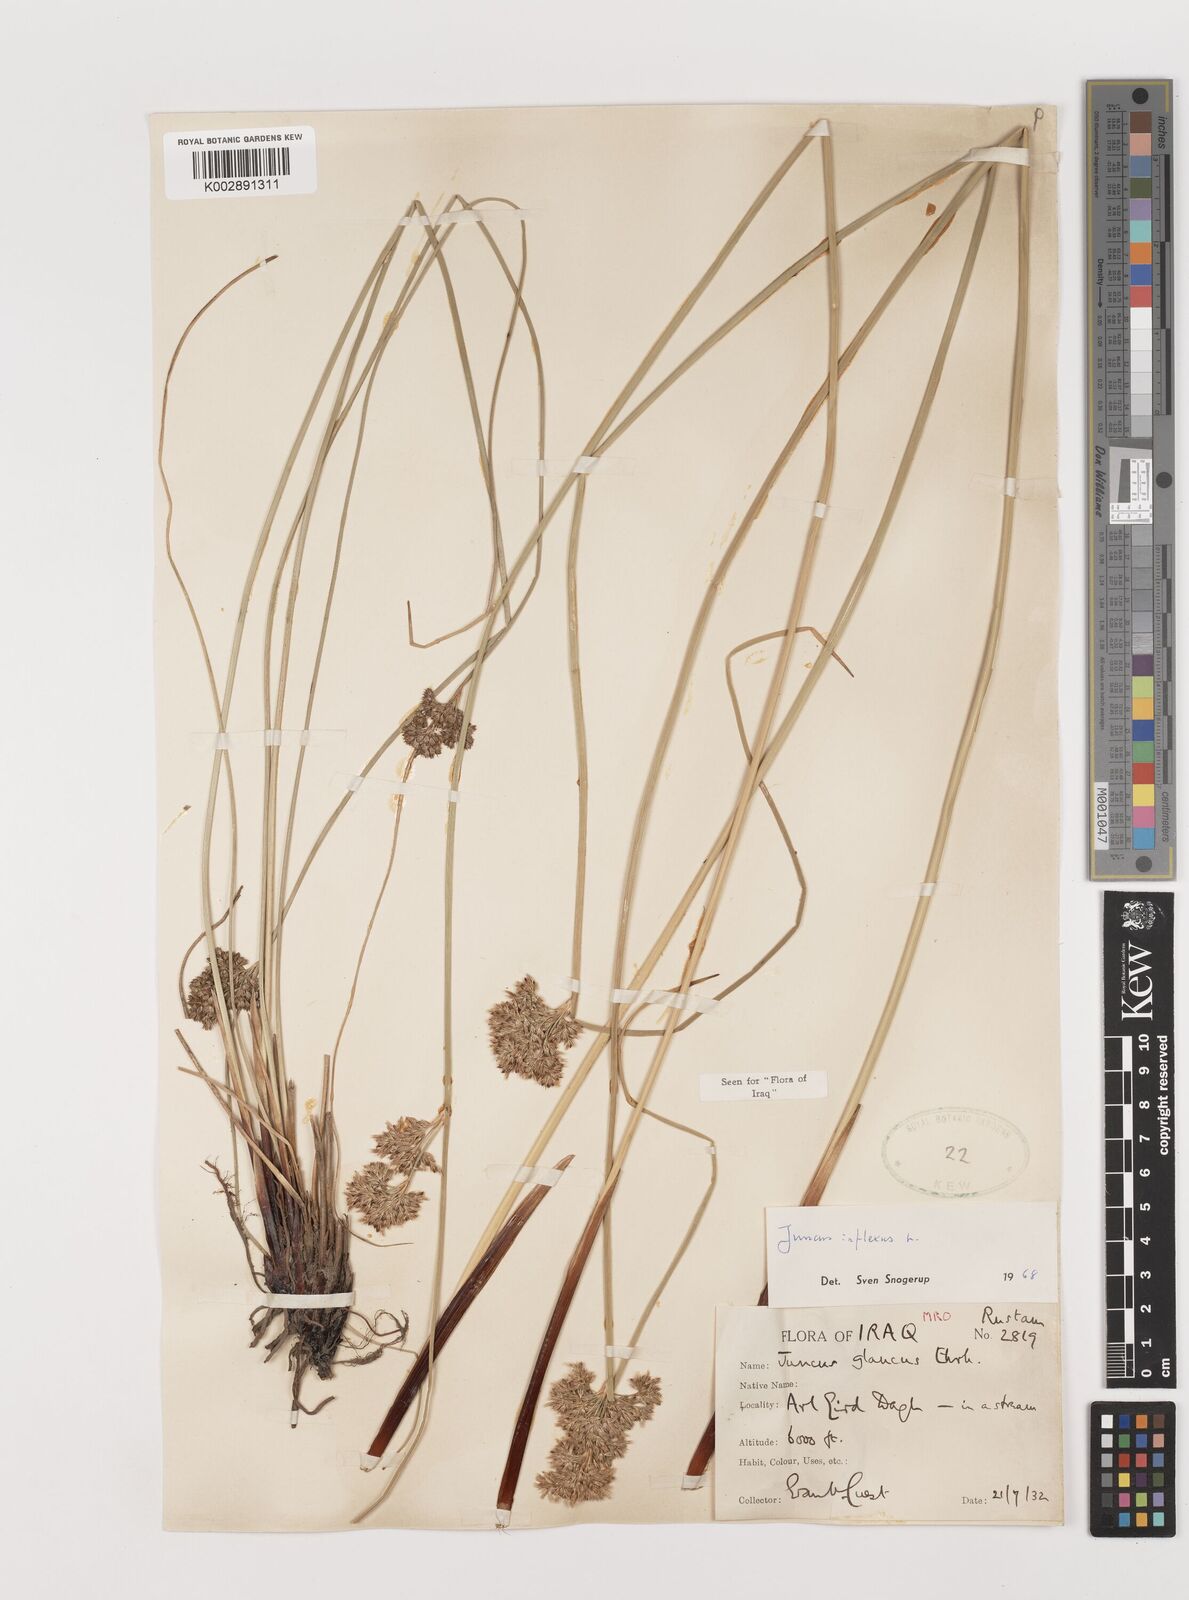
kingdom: Plantae
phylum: Tracheophyta
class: Liliopsida
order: Poales
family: Juncaceae
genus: Juncus
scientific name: Juncus inflexus
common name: Hard rush
